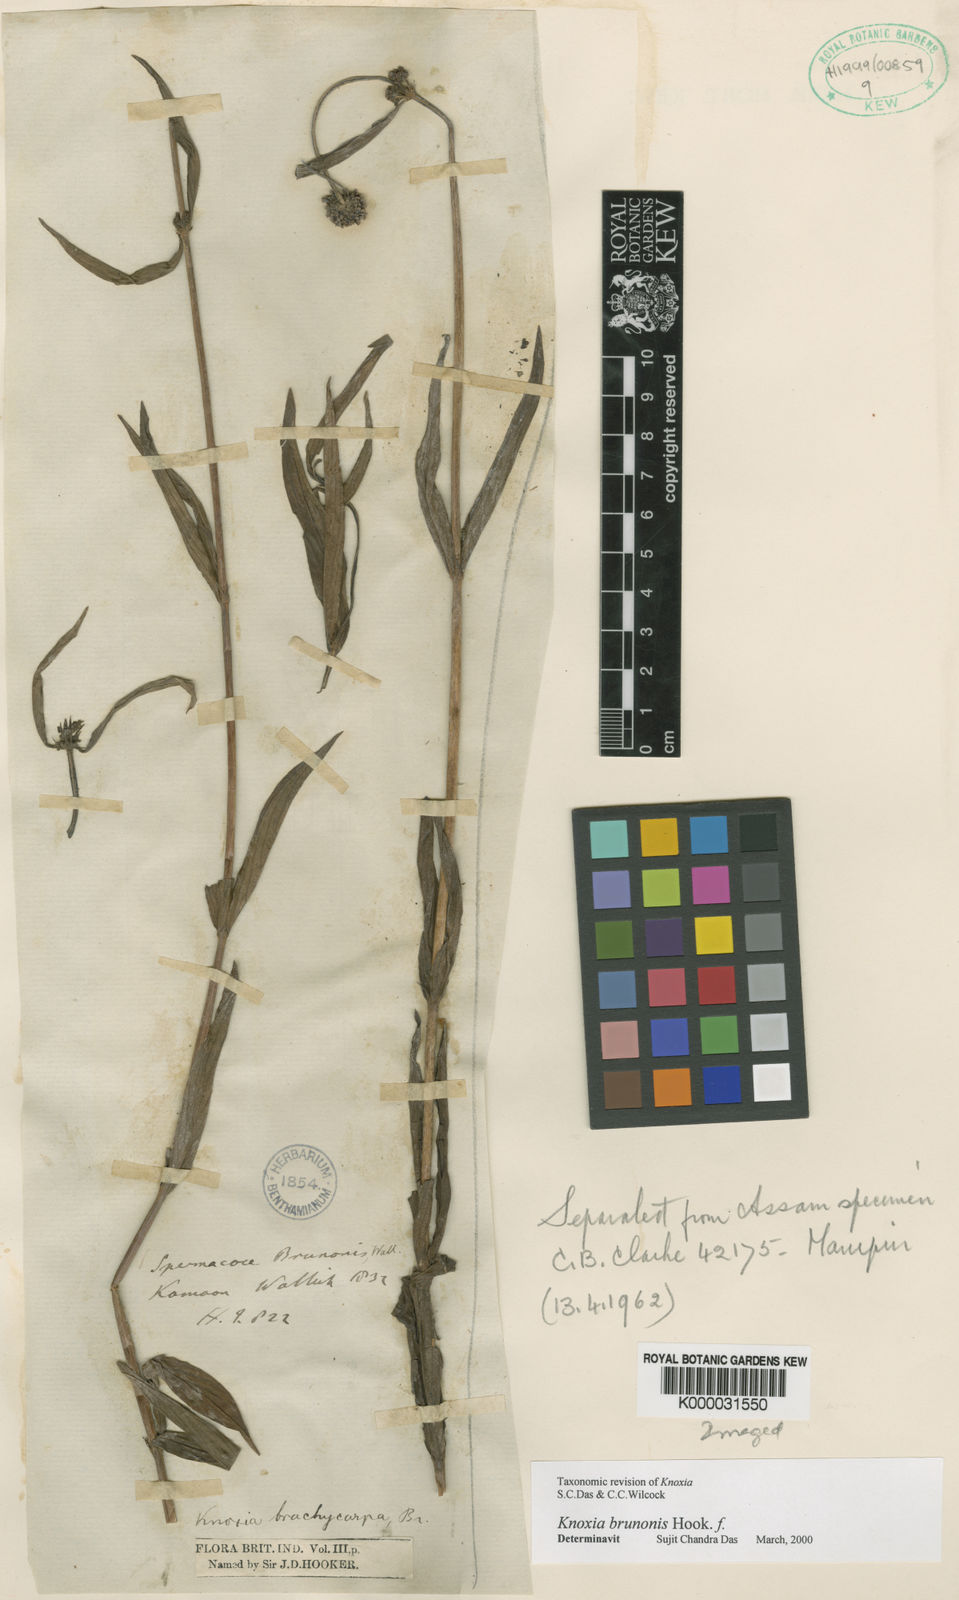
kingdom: Plantae
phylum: Tracheophyta
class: Magnoliopsida
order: Gentianales
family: Rubiaceae
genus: Knoxia
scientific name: Knoxia
